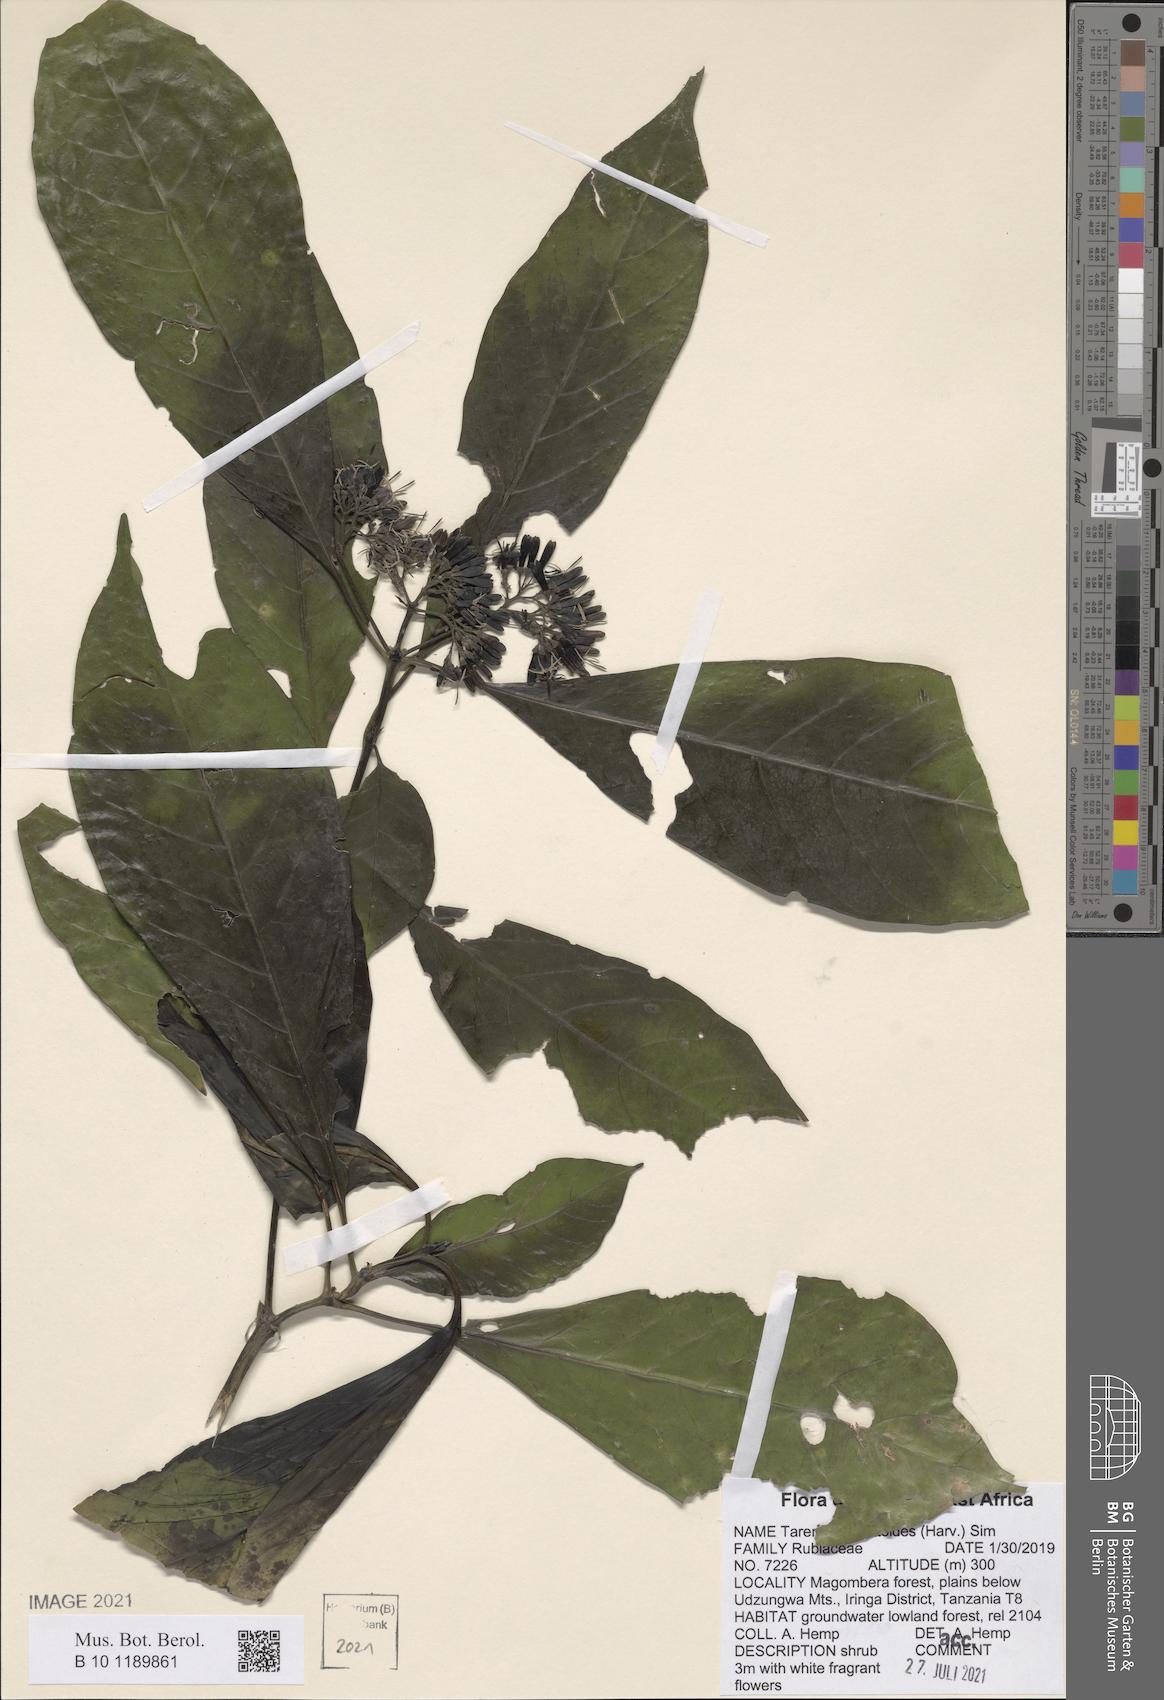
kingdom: Plantae
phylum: Tracheophyta
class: Magnoliopsida
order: Gentianales
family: Rubiaceae
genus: Tarenna
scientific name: Tarenna pavettoides
